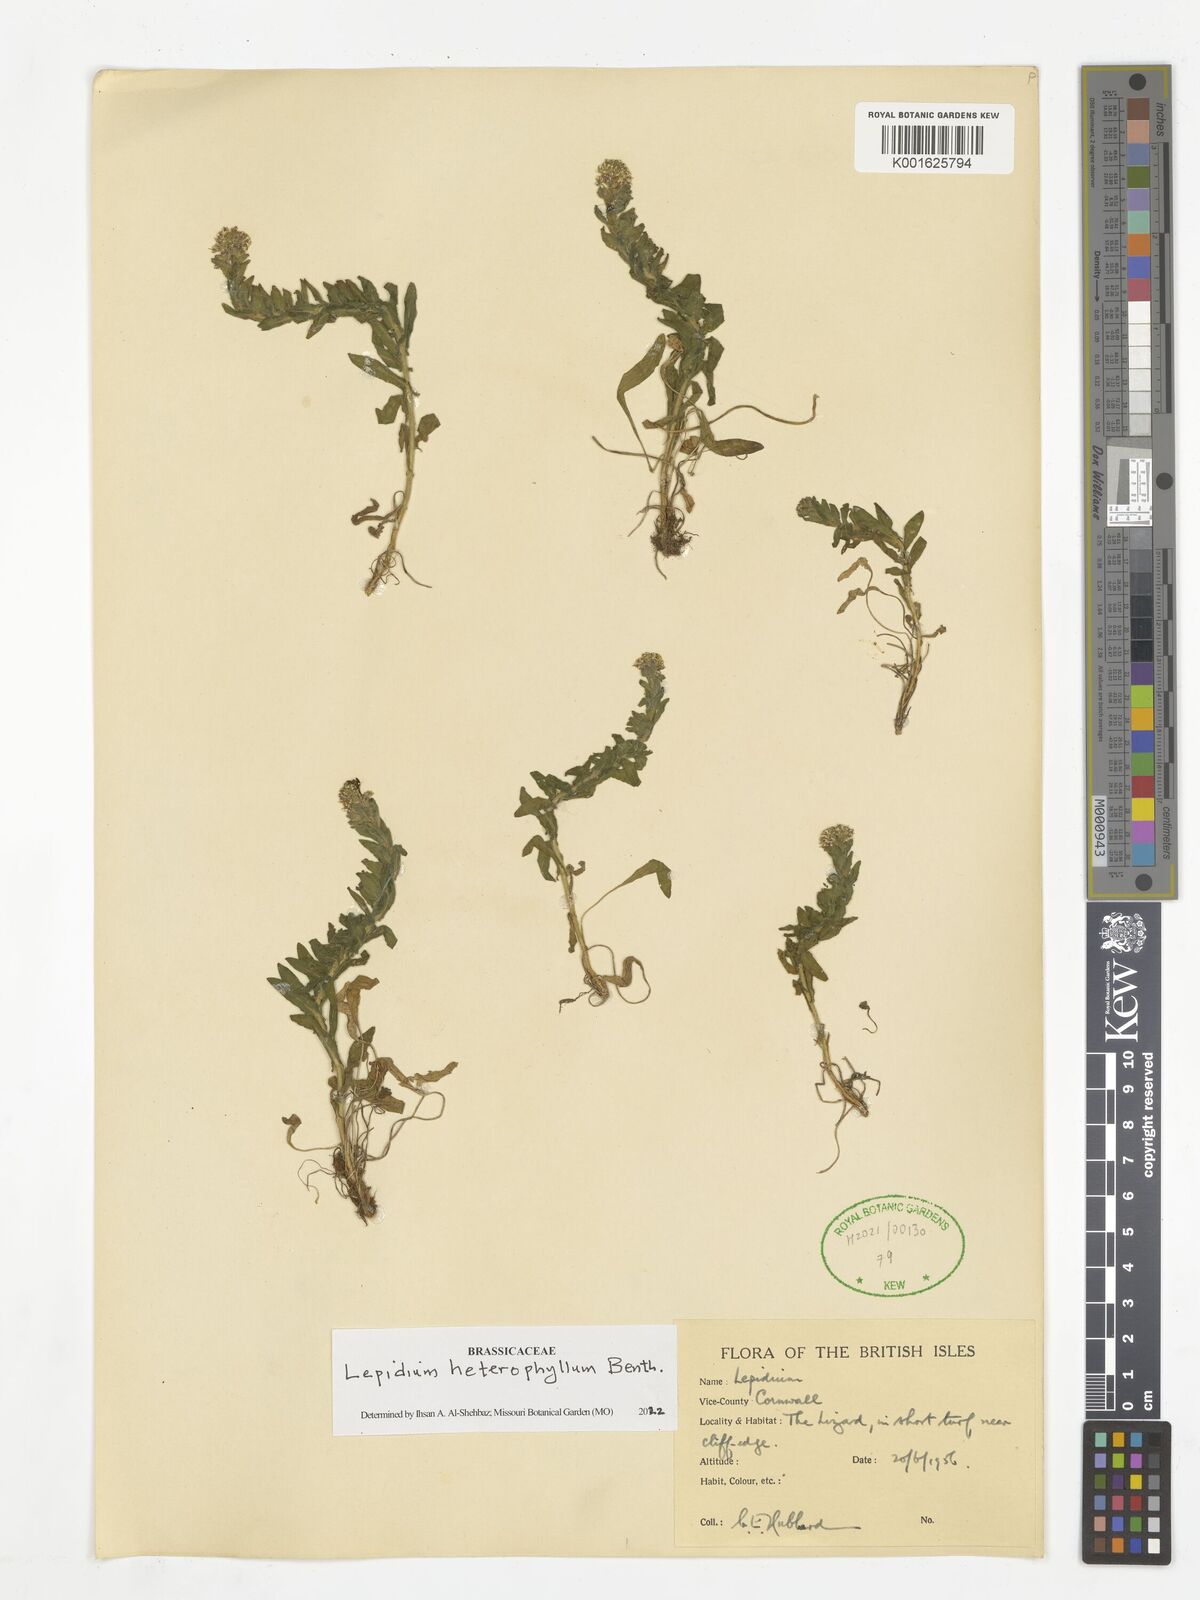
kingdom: Plantae
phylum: Tracheophyta
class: Magnoliopsida
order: Brassicales
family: Brassicaceae
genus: Lepidium
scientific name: Lepidium heterophyllum
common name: Smith's pepperwort
